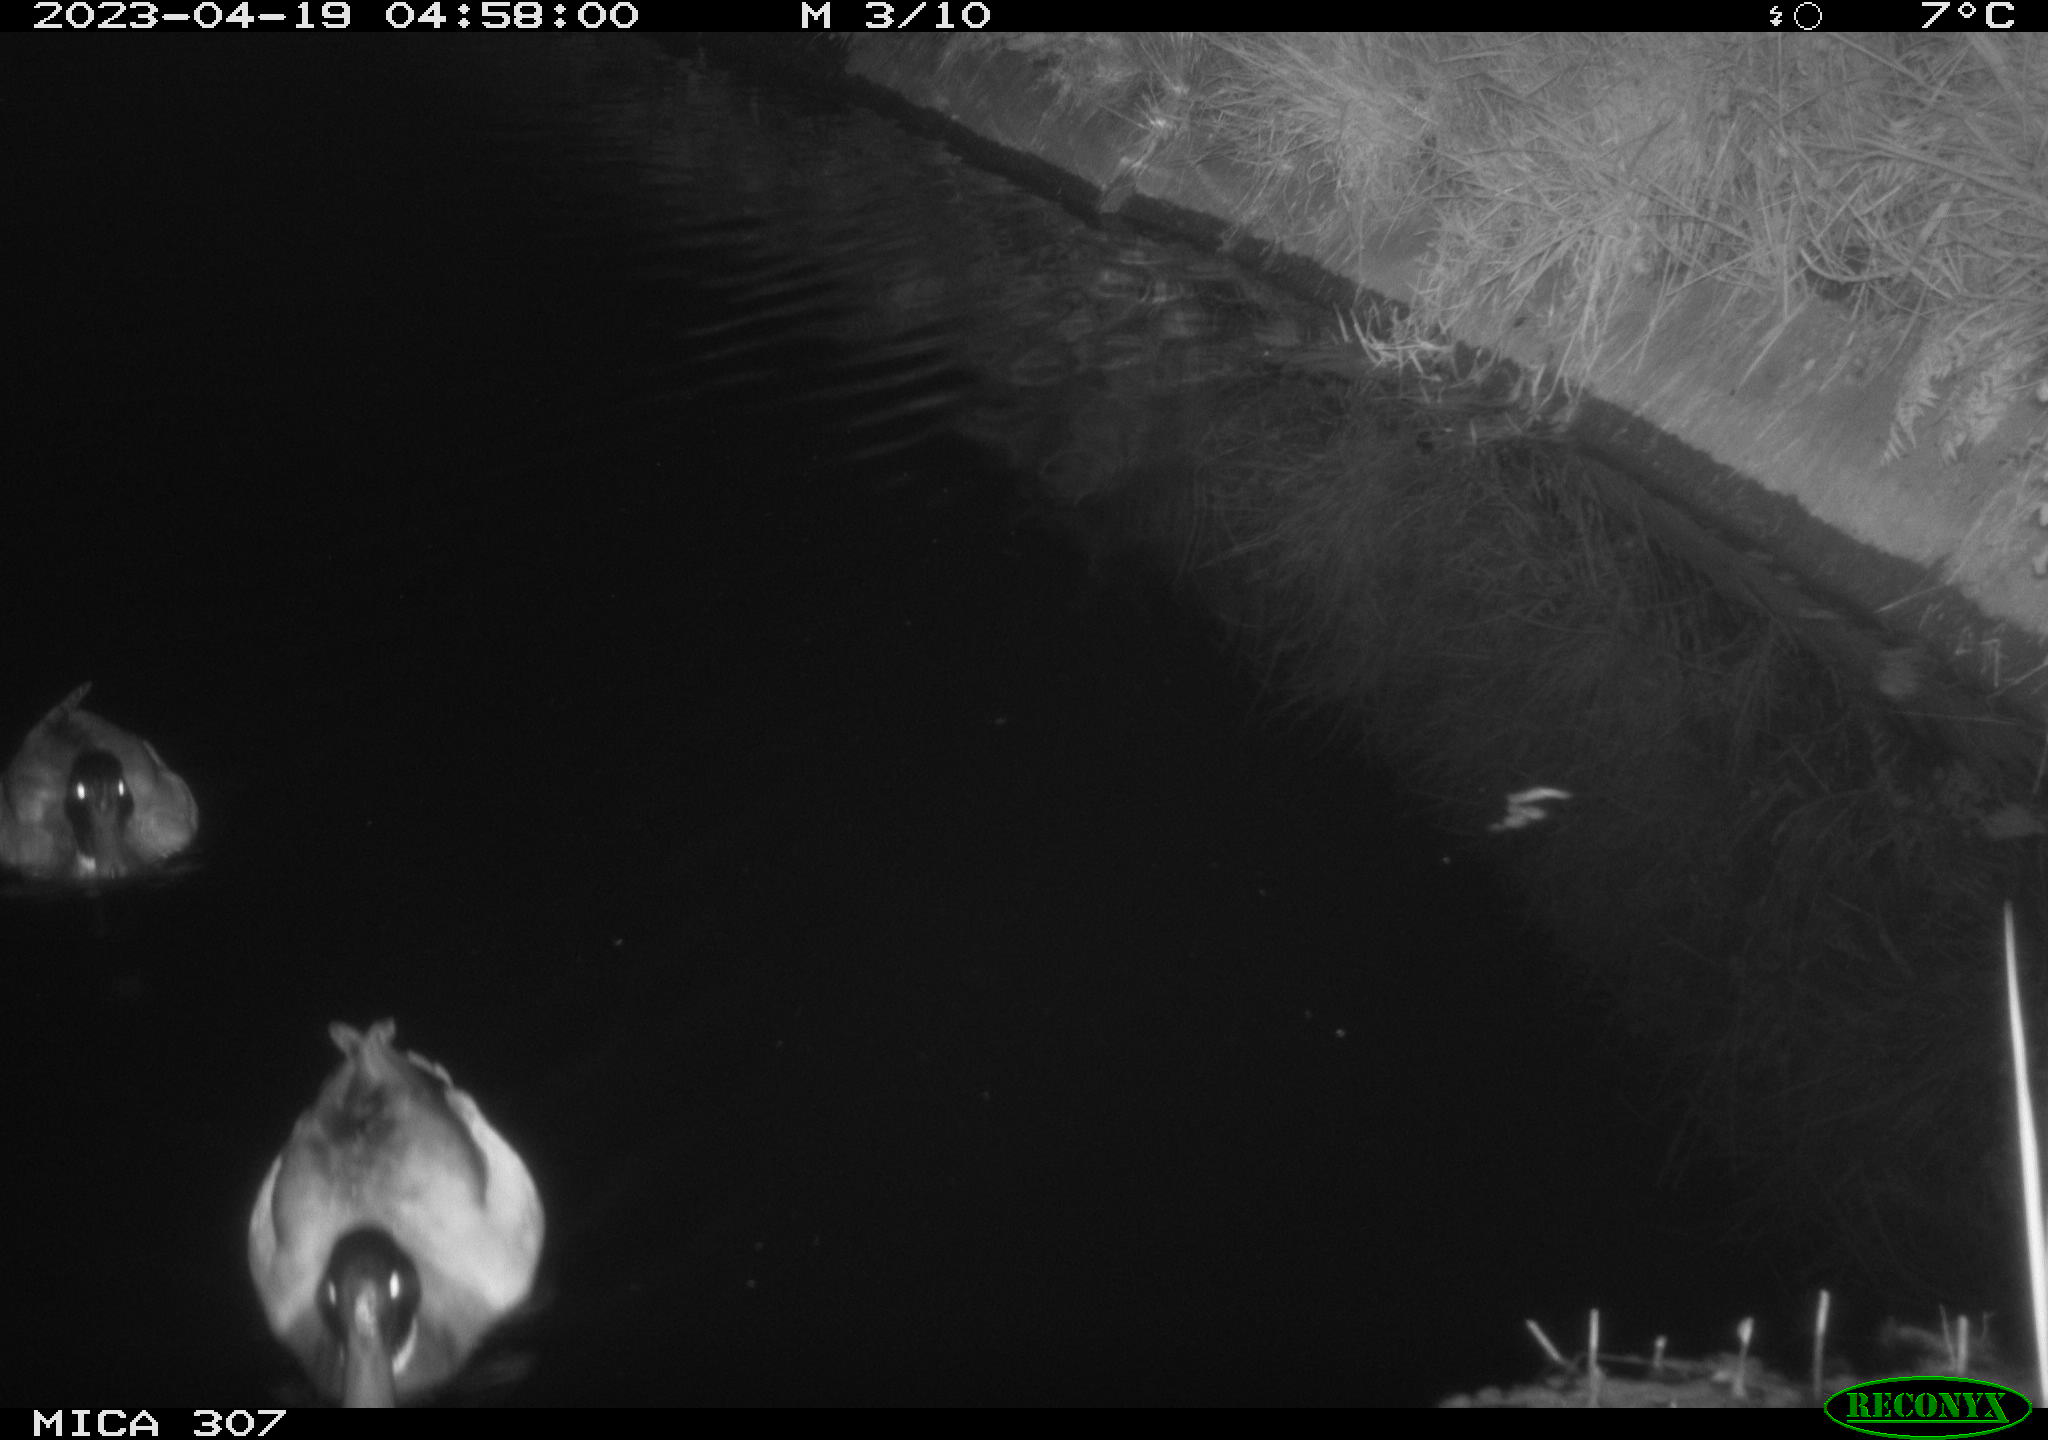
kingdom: Animalia
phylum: Chordata
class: Aves
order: Anseriformes
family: Anatidae
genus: Anas
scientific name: Anas
